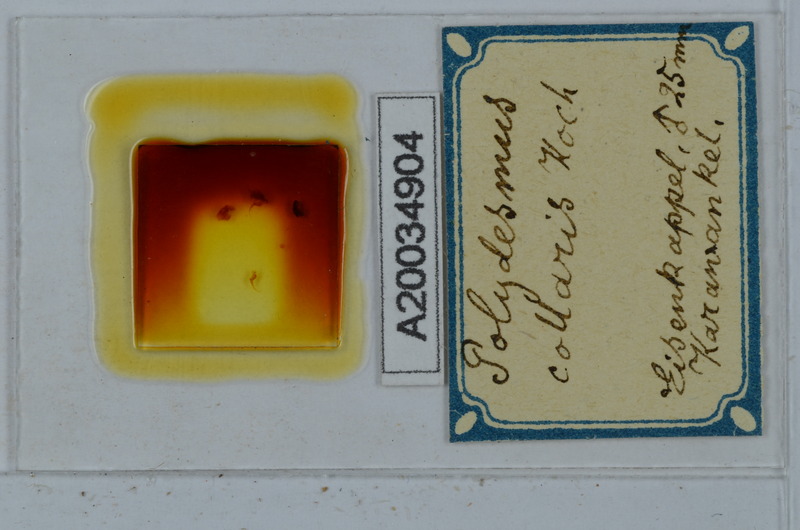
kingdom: Animalia
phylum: Arthropoda
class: Diplopoda
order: Polydesmida
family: Polydesmidae
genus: Polydesmus
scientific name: Polydesmus collaris
